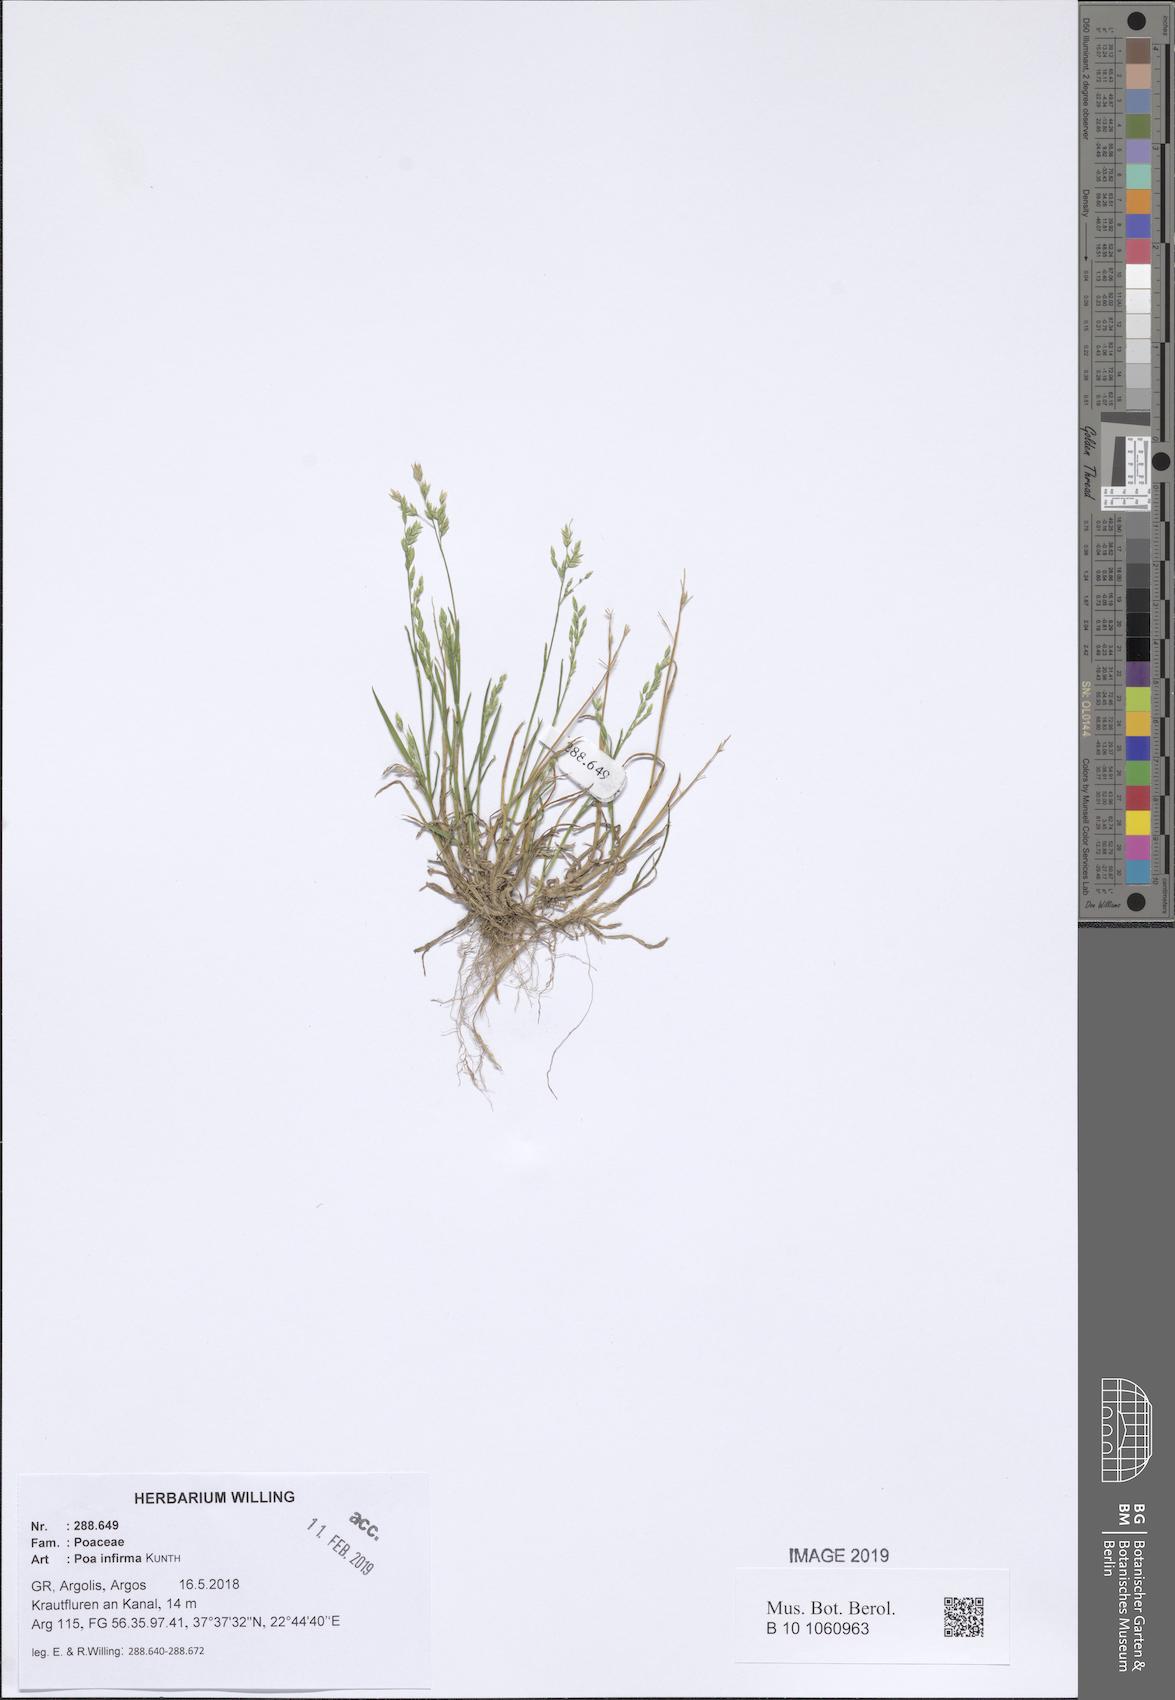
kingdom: Plantae
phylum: Tracheophyta
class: Liliopsida
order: Poales
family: Poaceae
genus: Poa
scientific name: Poa infirma
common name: Weak bluegrass
